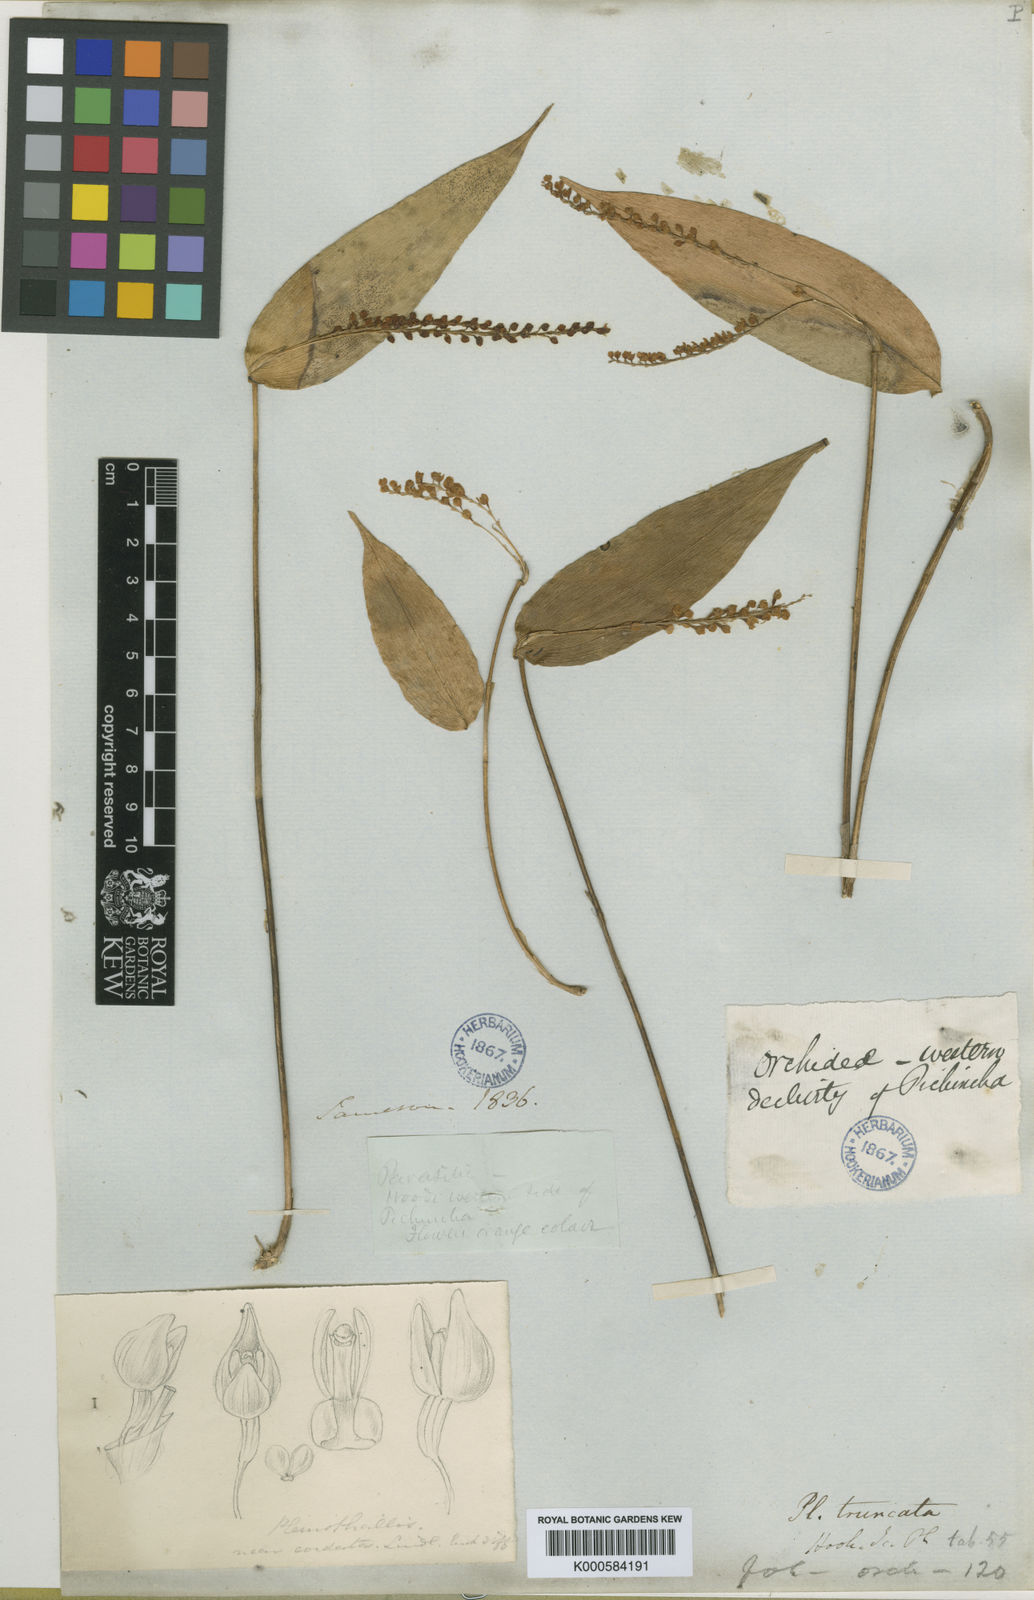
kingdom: Plantae
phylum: Tracheophyta
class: Liliopsida
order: Asparagales
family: Orchidaceae
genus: Stelis
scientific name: Stelis convoluta
